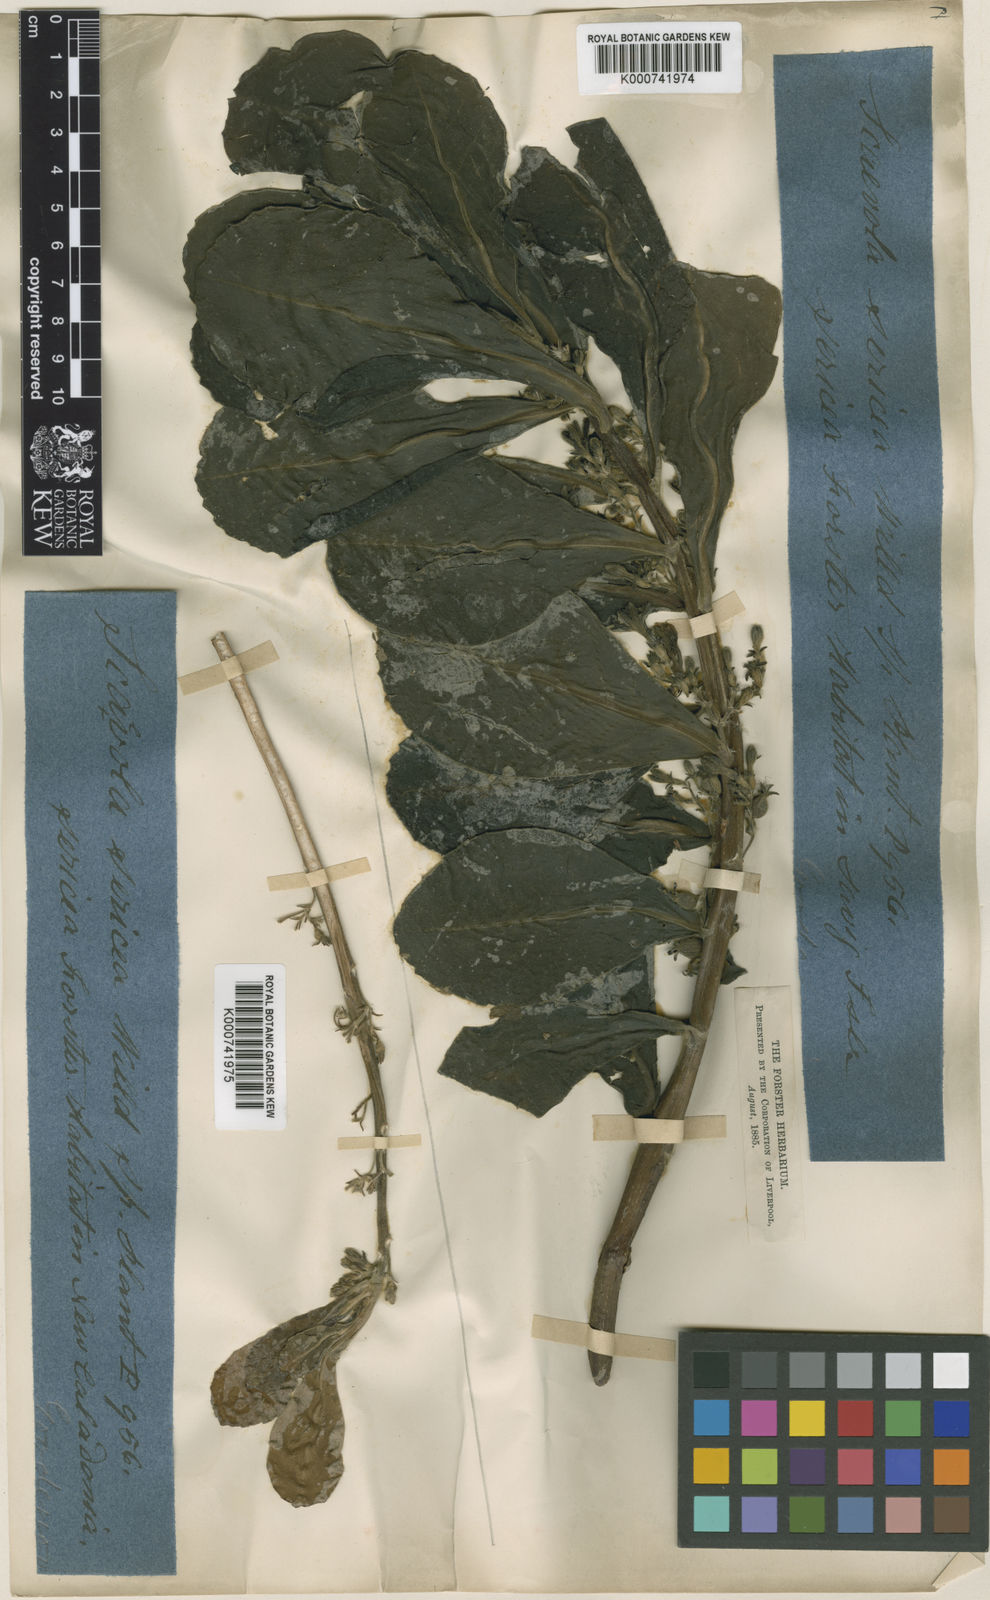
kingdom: Plantae
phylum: Tracheophyta
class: Magnoliopsida
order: Asterales
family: Goodeniaceae
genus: Scaevola
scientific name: Scaevola
